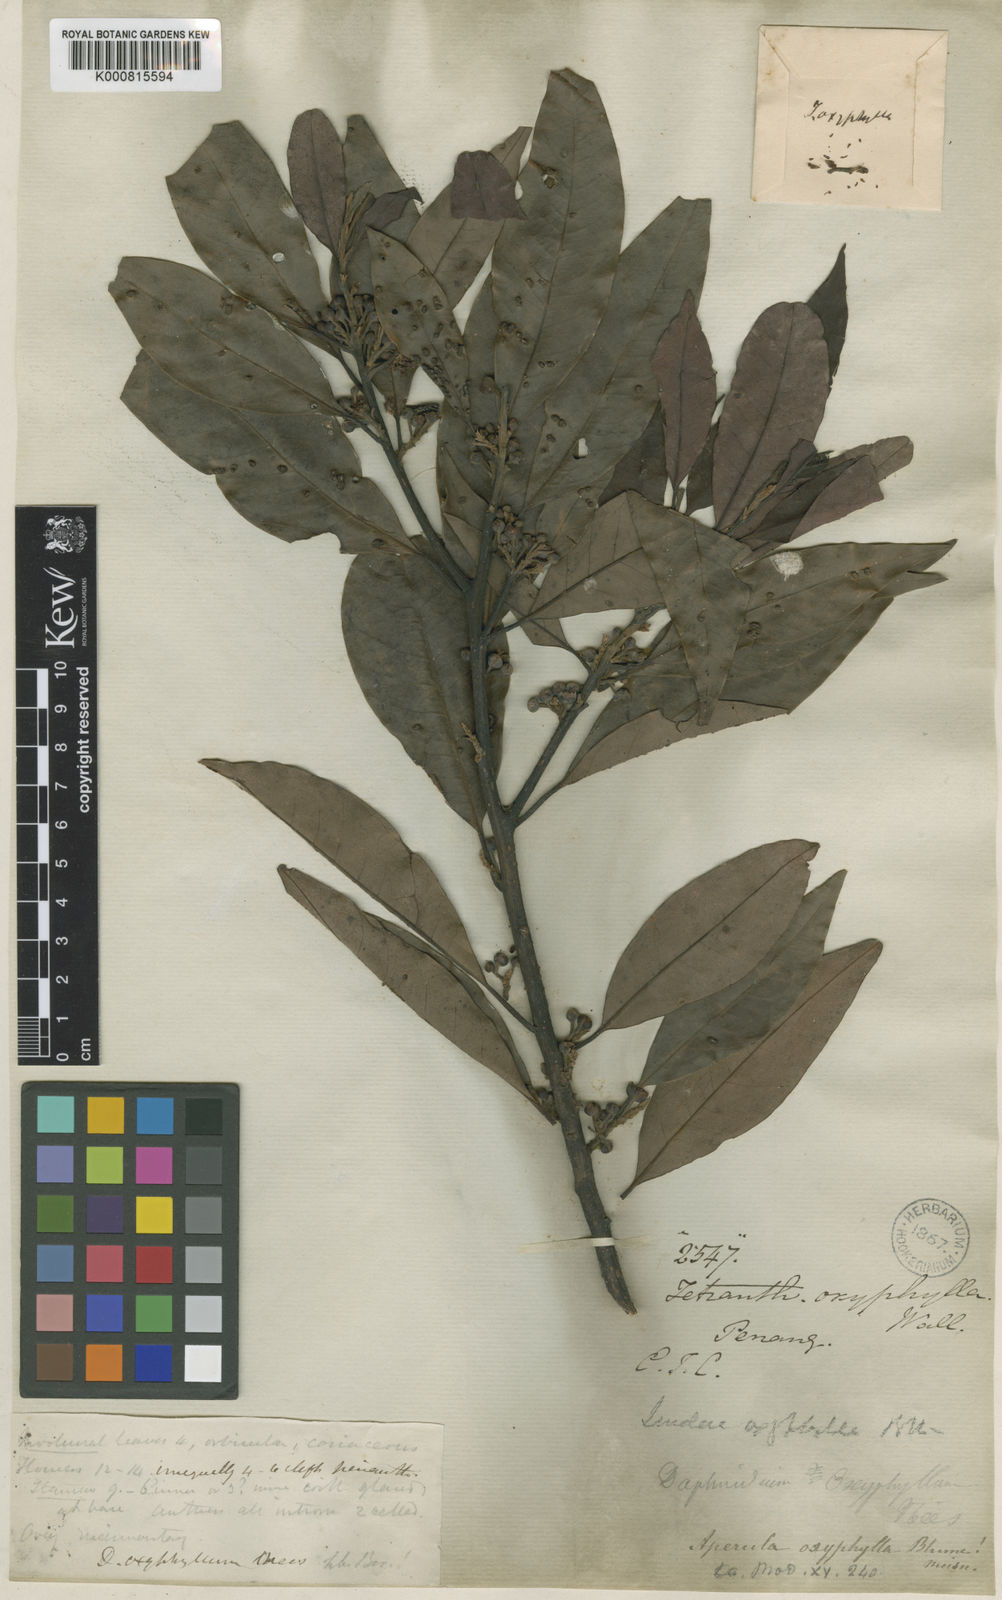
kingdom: Plantae
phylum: Tracheophyta
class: Magnoliopsida
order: Laurales
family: Lauraceae
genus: Lindera
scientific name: Lindera
